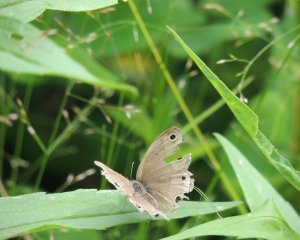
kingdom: Animalia
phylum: Arthropoda
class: Insecta
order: Lepidoptera
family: Nymphalidae
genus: Euptychia
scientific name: Euptychia cymela
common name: Little Wood Satyr
